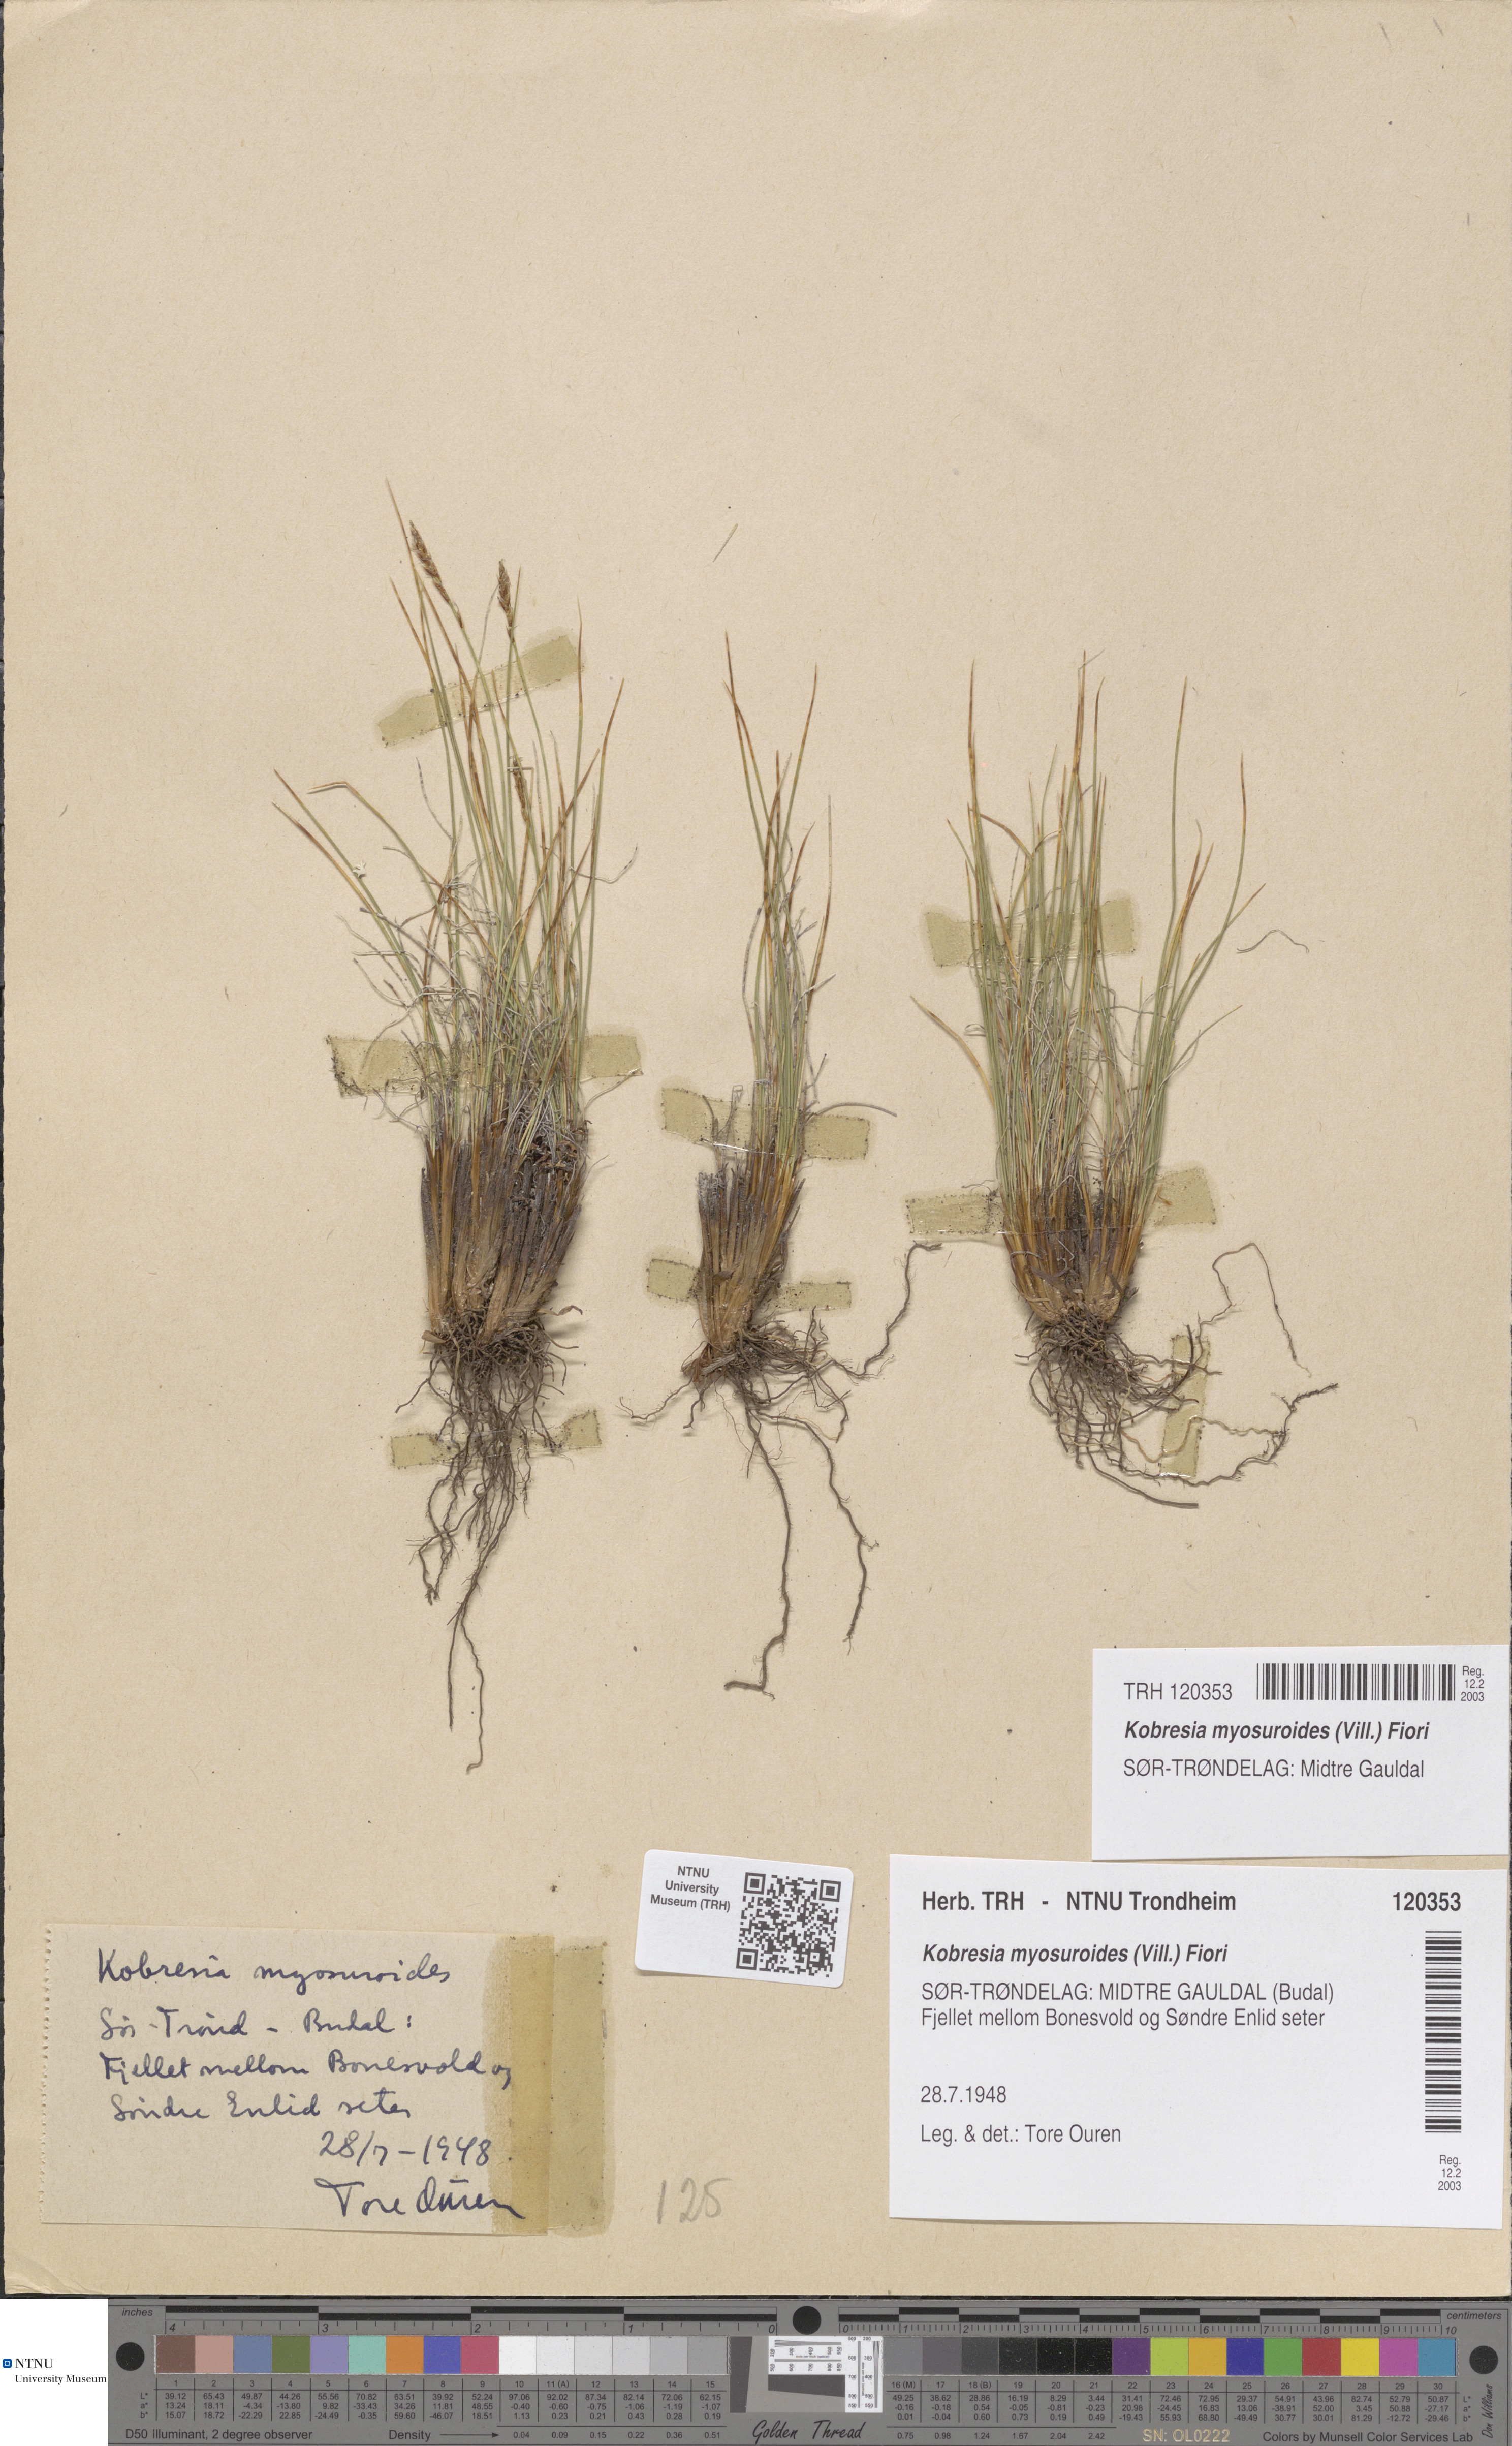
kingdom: Plantae
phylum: Tracheophyta
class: Liliopsida
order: Poales
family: Cyperaceae
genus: Carex
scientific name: Carex myosuroides
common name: Bellard's bog sedge
